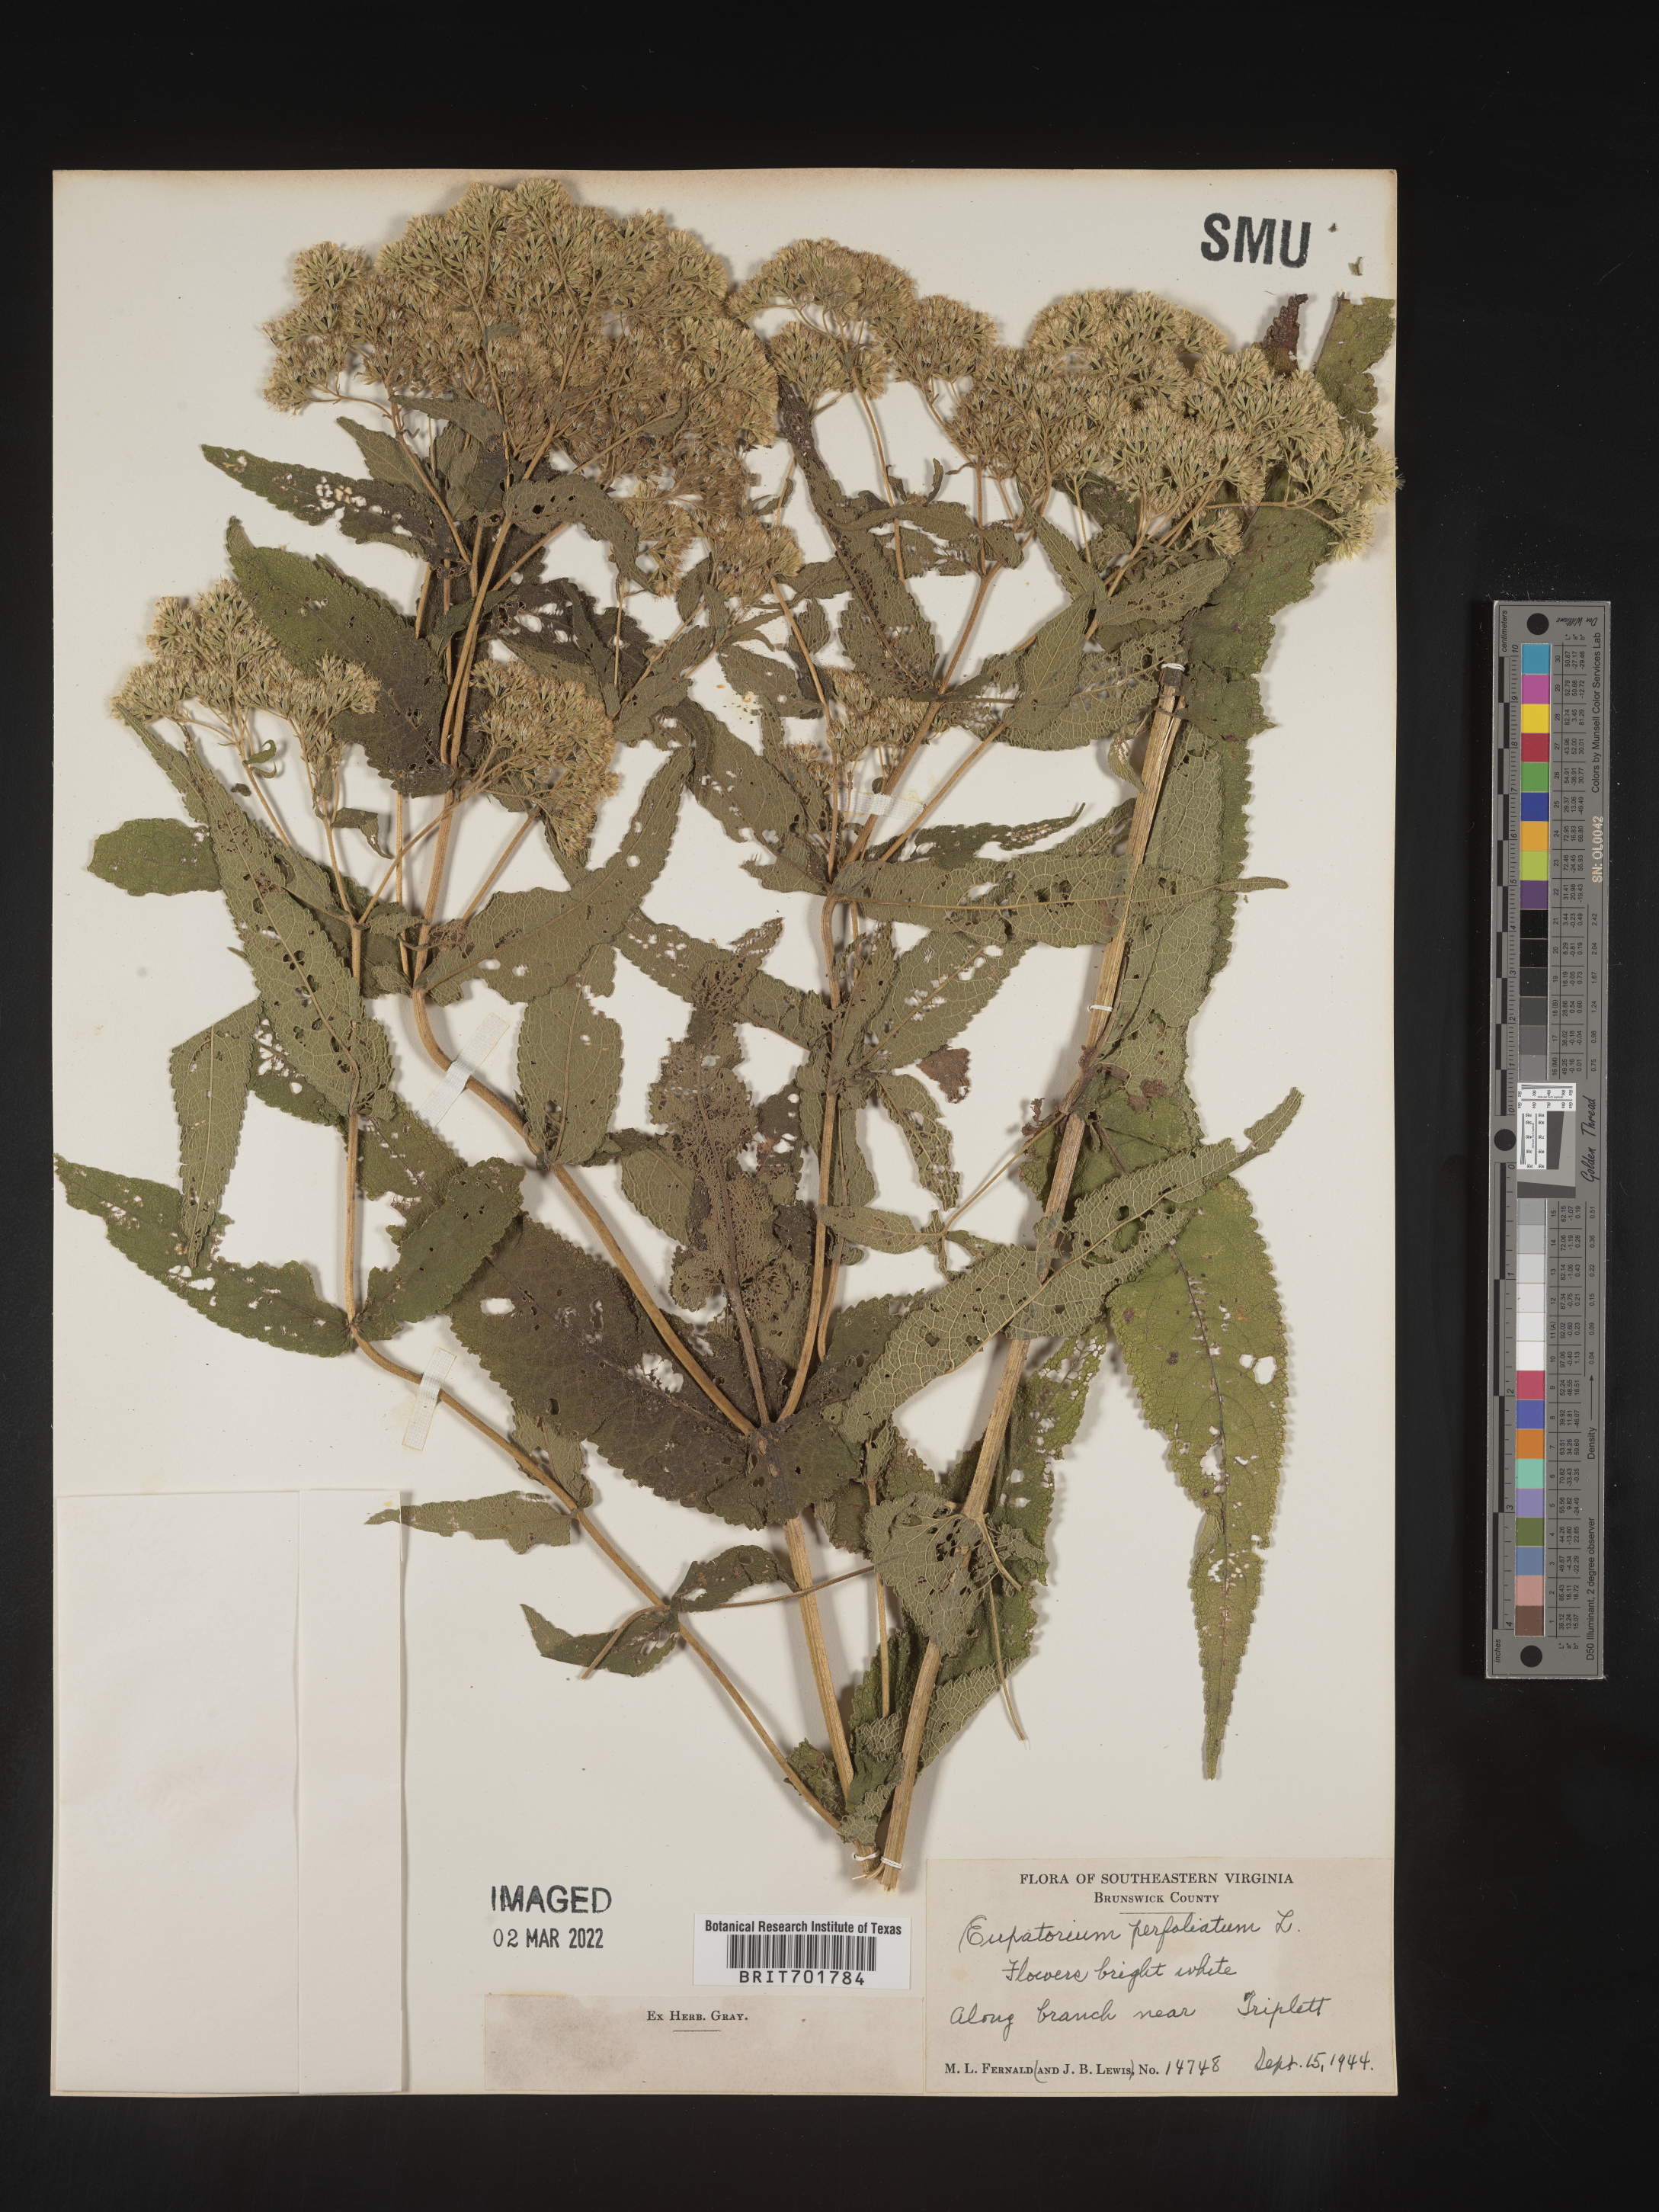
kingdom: Plantae
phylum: Tracheophyta
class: Magnoliopsida
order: Asterales
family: Asteraceae
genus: Eupatorium
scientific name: Eupatorium perfoliatum
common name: Boneset
